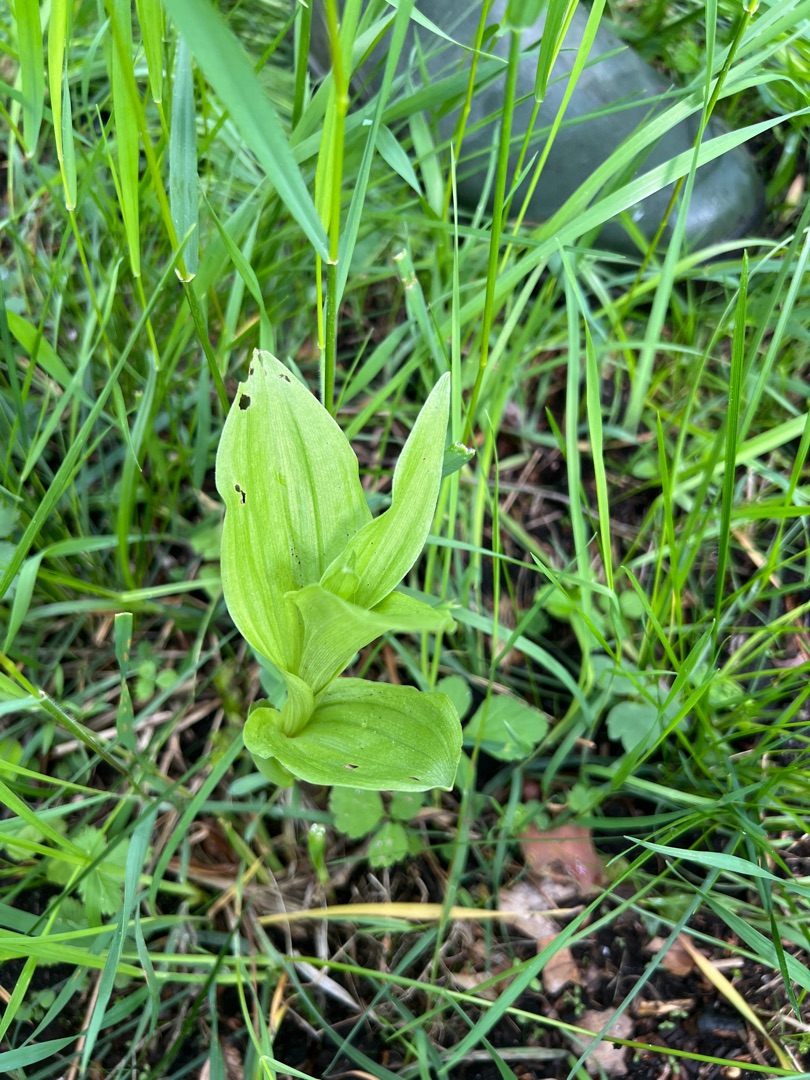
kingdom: Plantae
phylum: Tracheophyta
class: Liliopsida
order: Asparagales
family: Orchidaceae
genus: Epipactis
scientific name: Epipactis helleborine
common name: Skov-hullæbe
